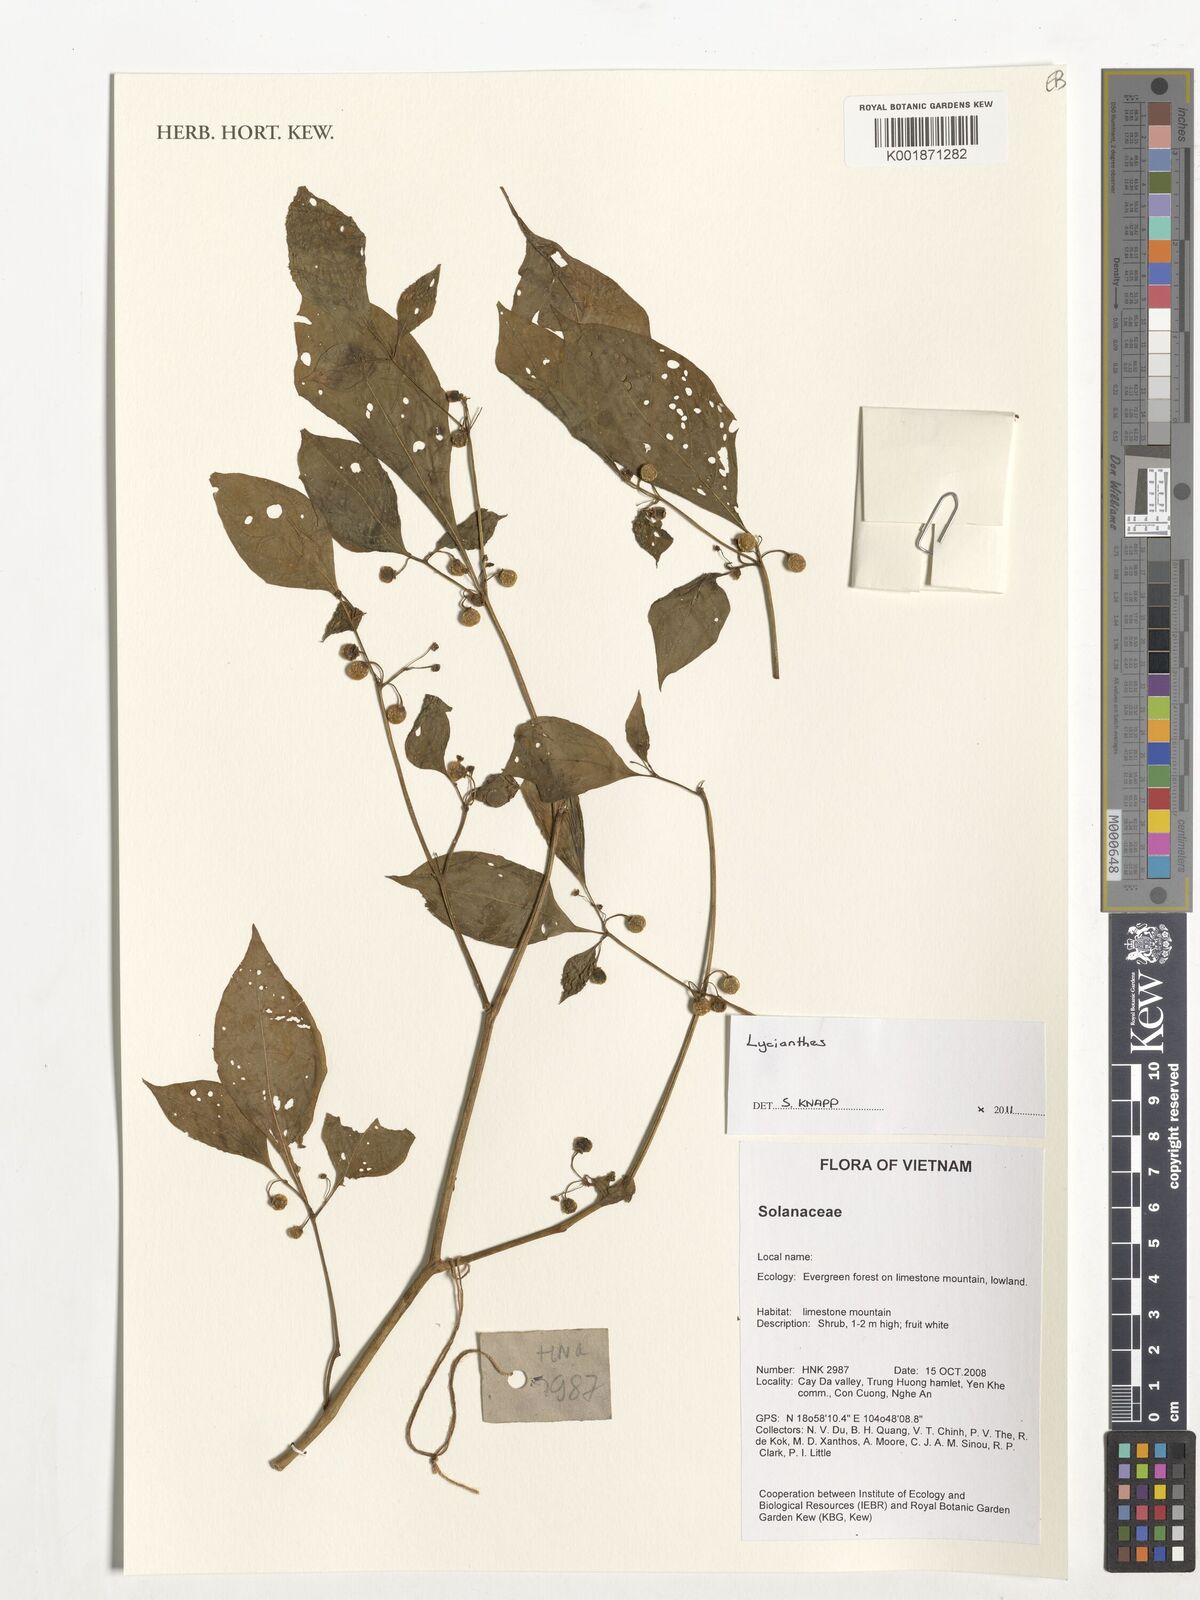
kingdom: Plantae
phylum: Tracheophyta
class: Magnoliopsida
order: Solanales
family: Solanaceae
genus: Lycianthes
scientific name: Lycianthes
